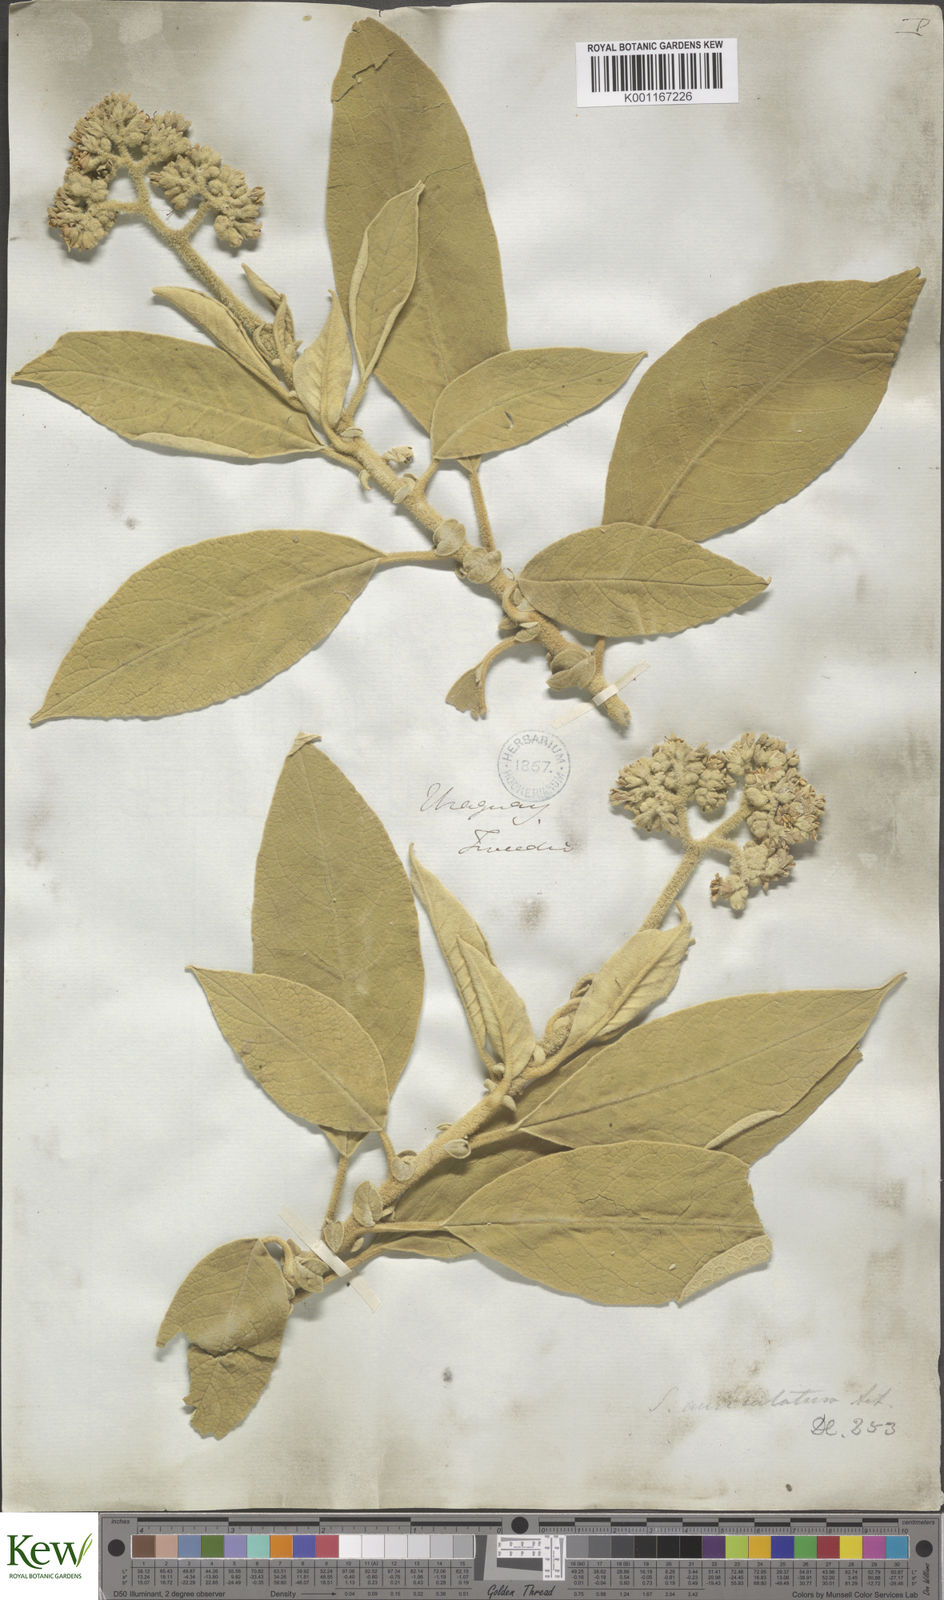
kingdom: Plantae
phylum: Tracheophyta
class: Magnoliopsida
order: Solanales
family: Solanaceae
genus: Solanum
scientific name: Solanum mauritianum
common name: Earleaf nightshade
